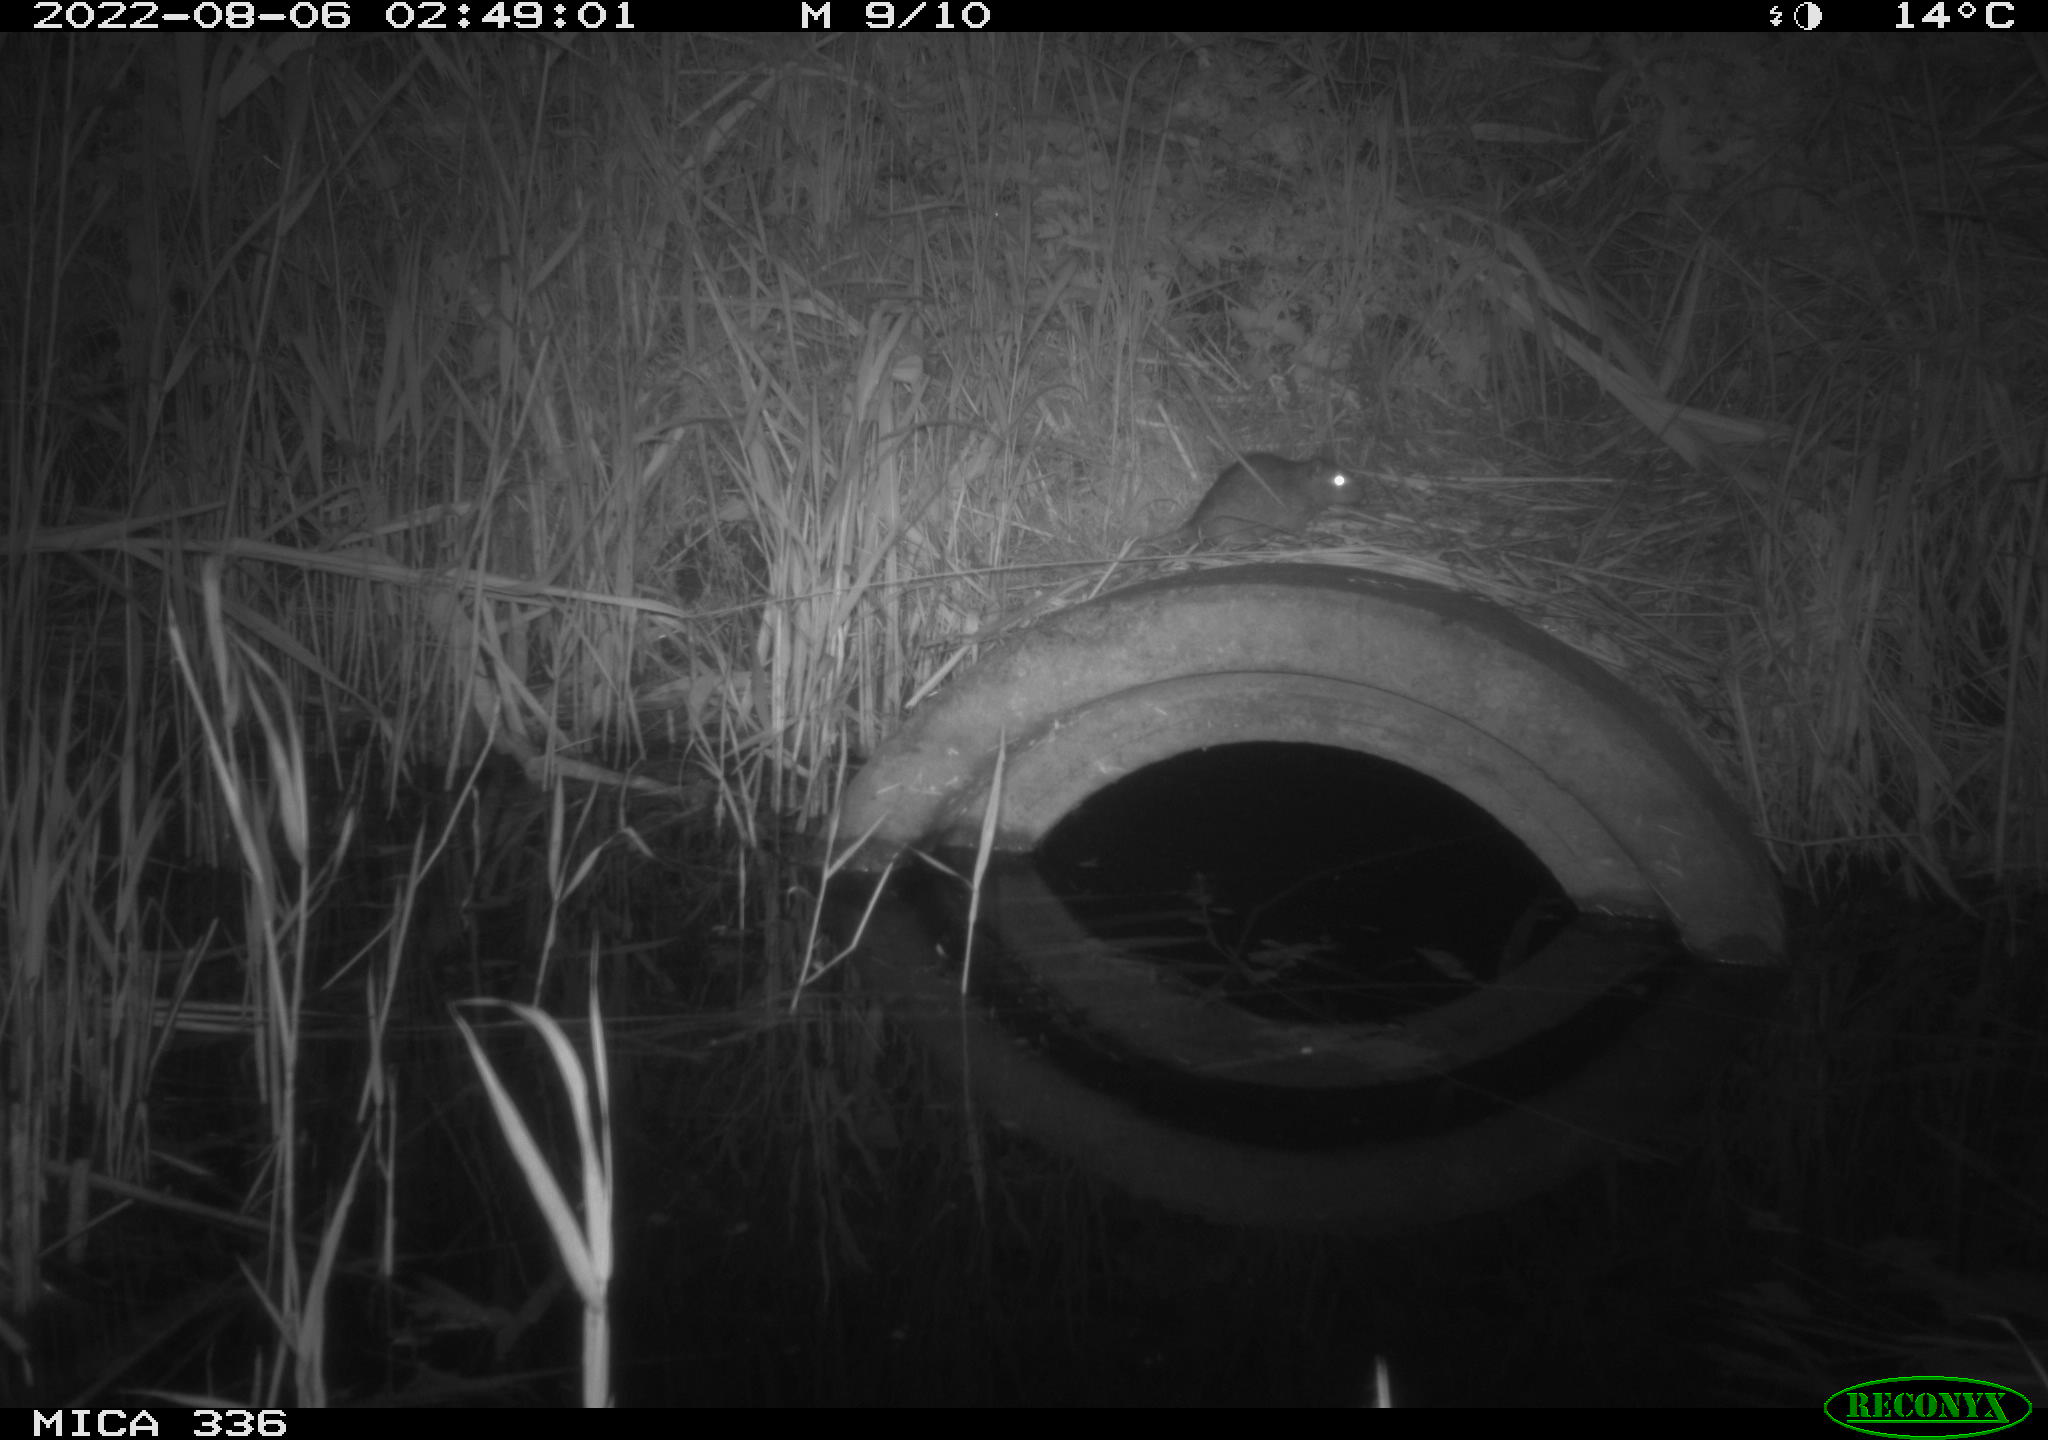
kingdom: Animalia
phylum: Chordata
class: Mammalia
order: Rodentia
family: Muridae
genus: Rattus
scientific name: Rattus norvegicus
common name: Brown rat
